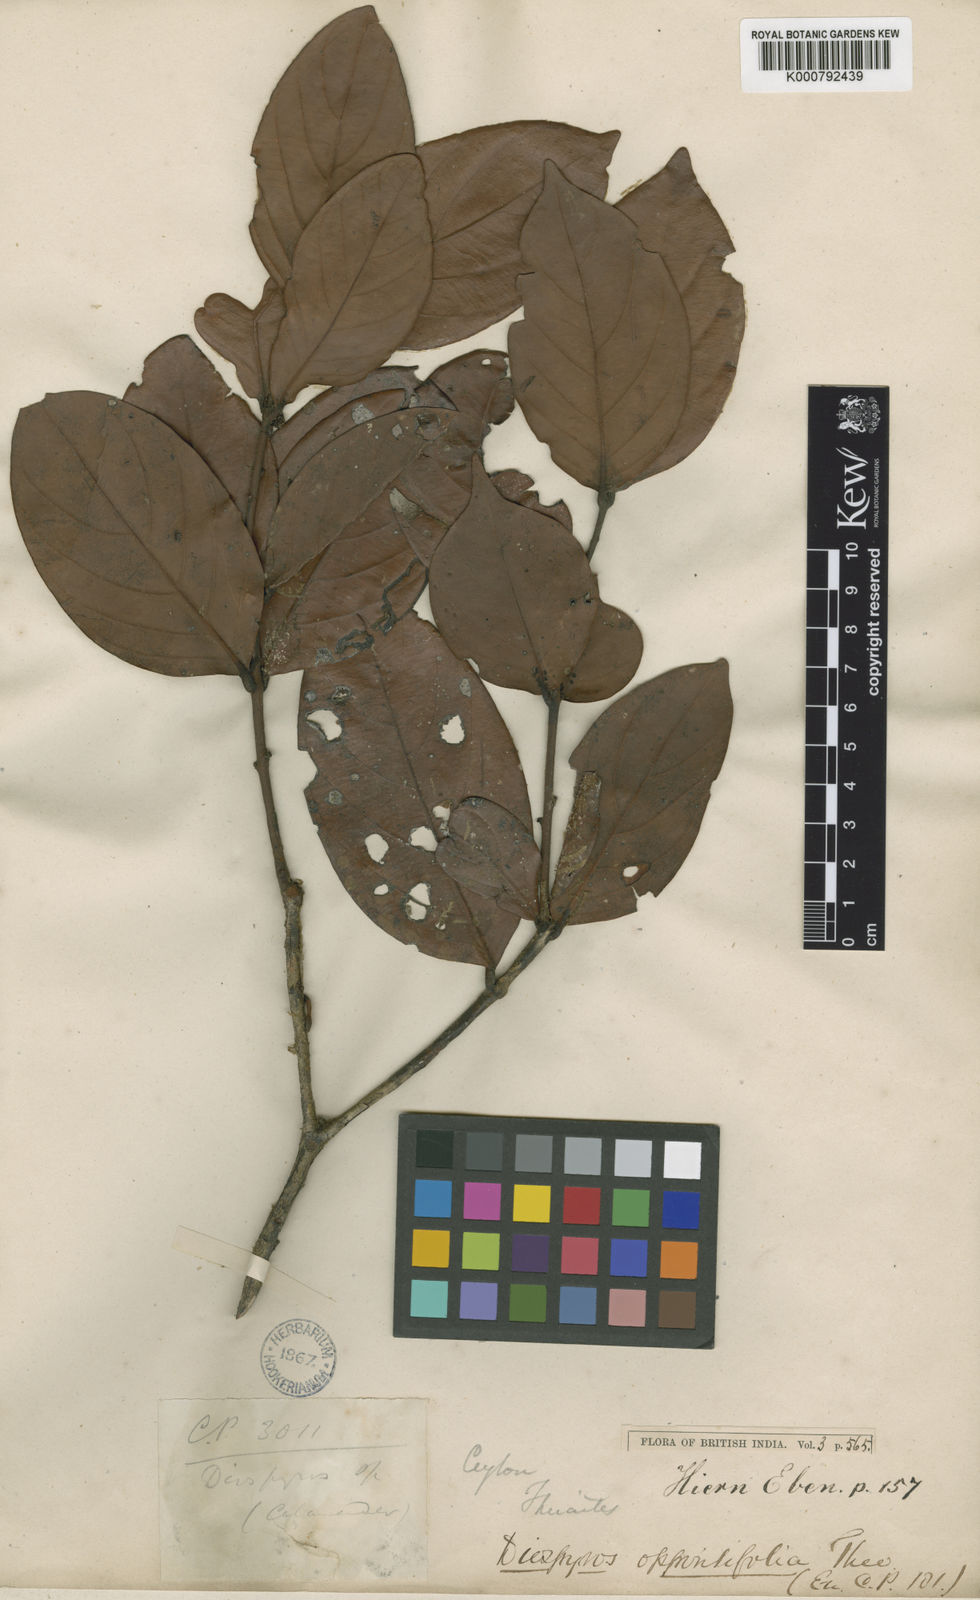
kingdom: Plantae
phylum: Tracheophyta
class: Magnoliopsida
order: Ericales
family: Ebenaceae
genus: Diospyros
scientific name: Diospyros oppositifolia
